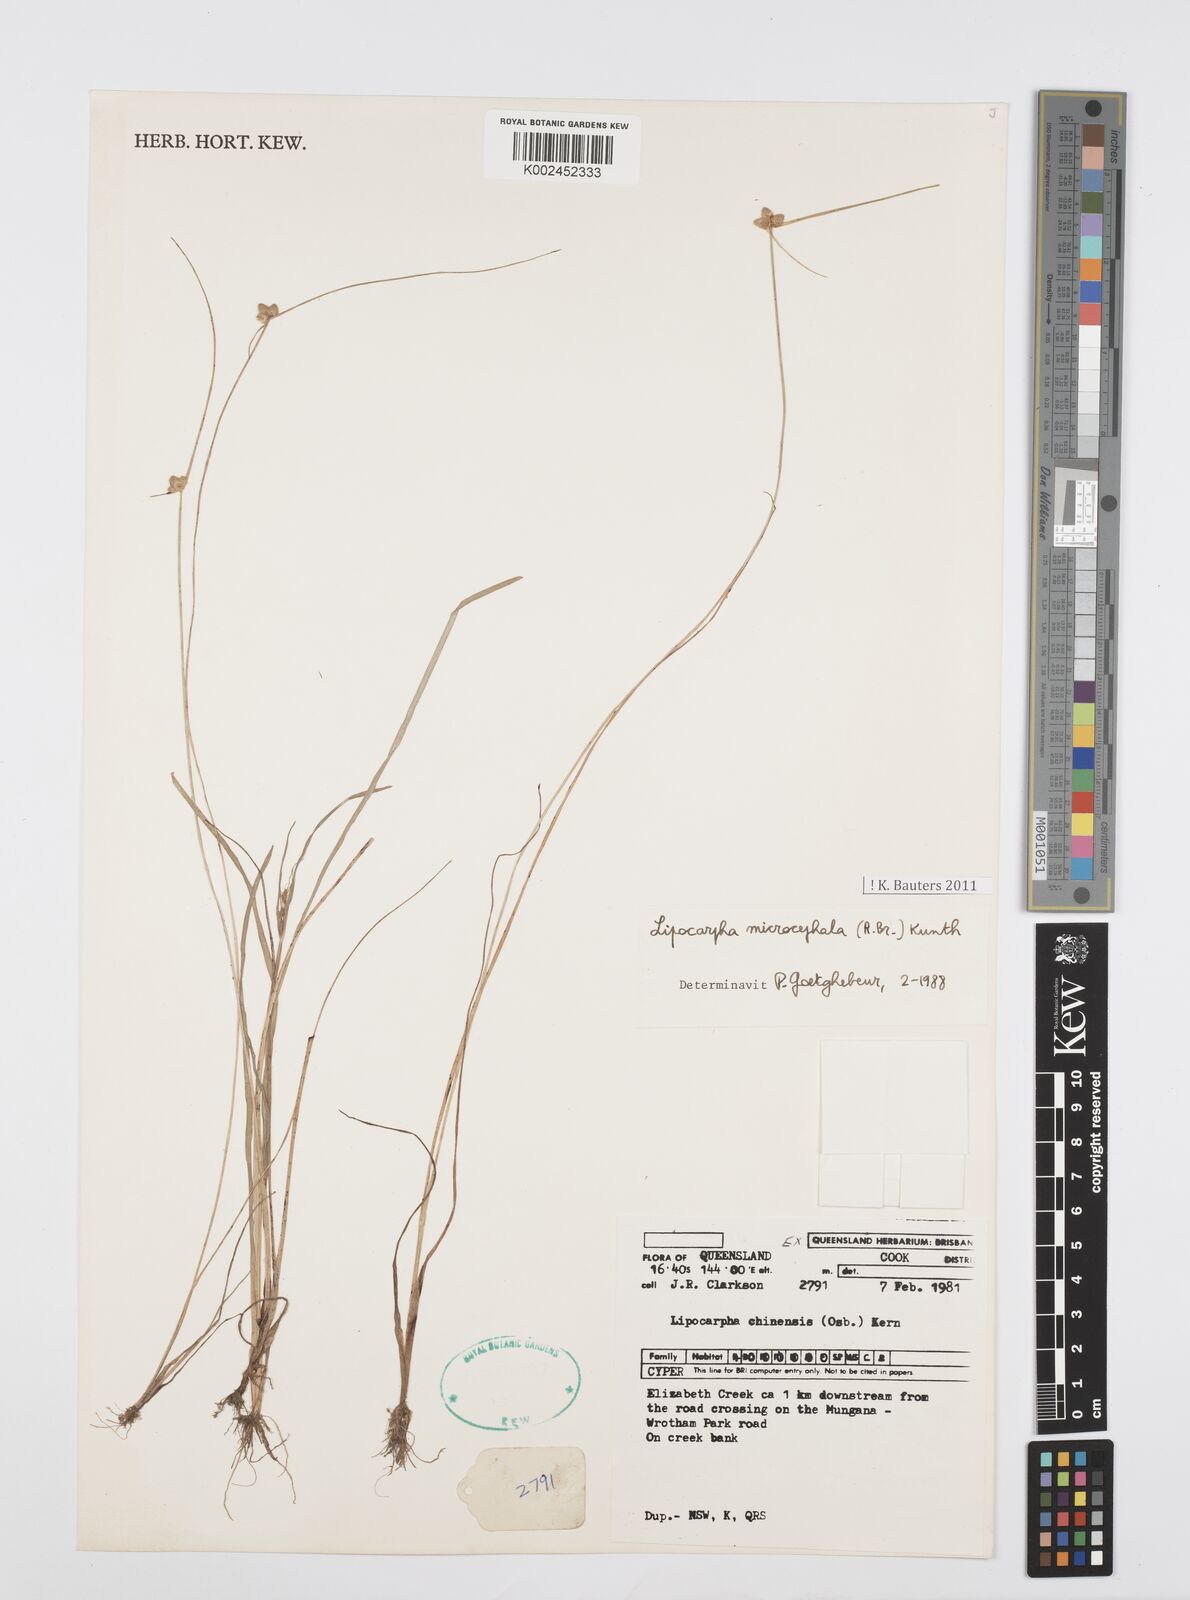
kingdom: Plantae
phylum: Tracheophyta
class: Liliopsida
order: Poales
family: Cyperaceae
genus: Cyperus
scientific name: Cyperus microcephalus
